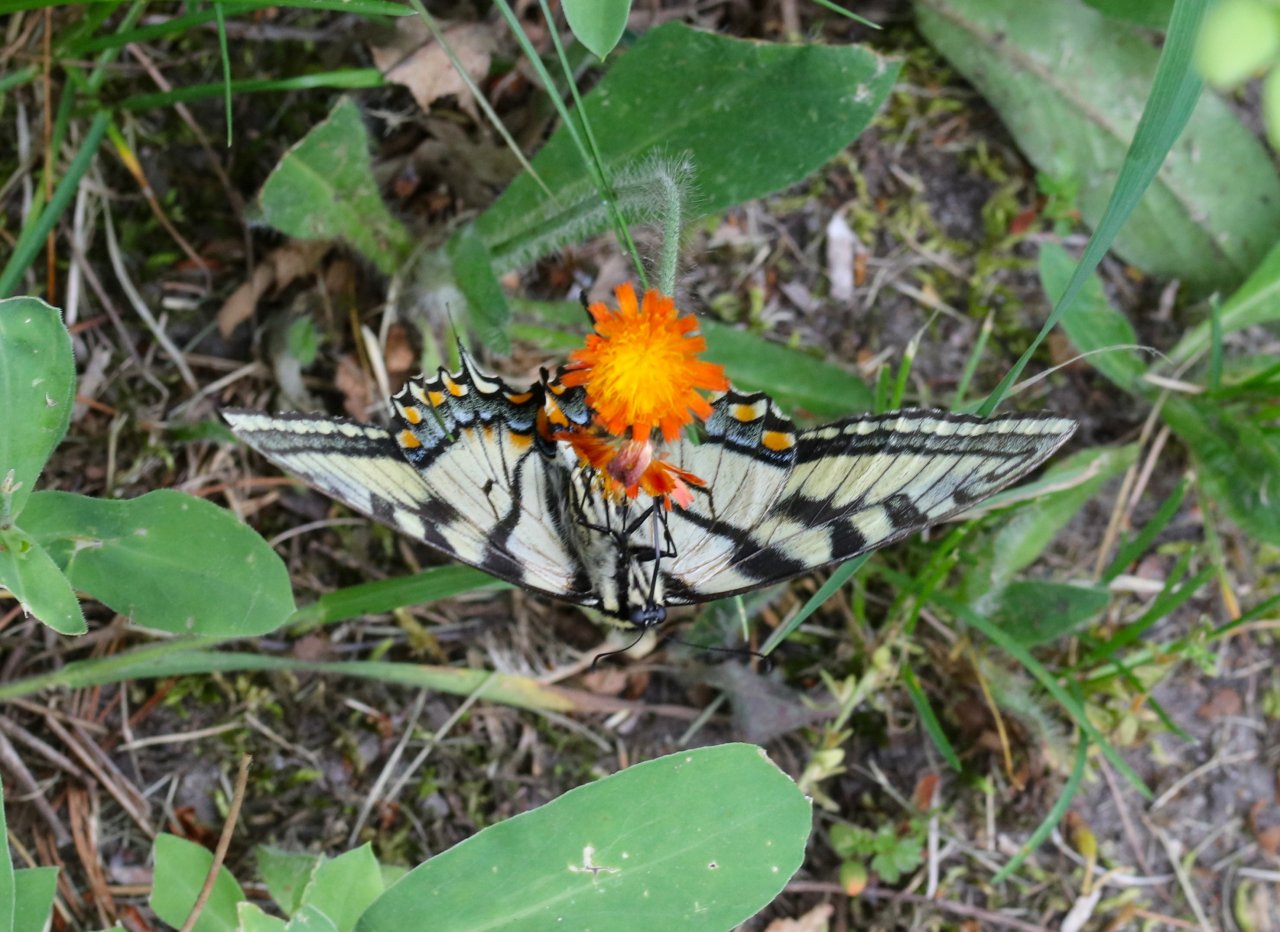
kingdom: Animalia
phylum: Arthropoda
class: Insecta
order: Lepidoptera
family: Papilionidae
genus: Pterourus
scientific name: Pterourus canadensis
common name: Canadian Tiger Swallowtail
